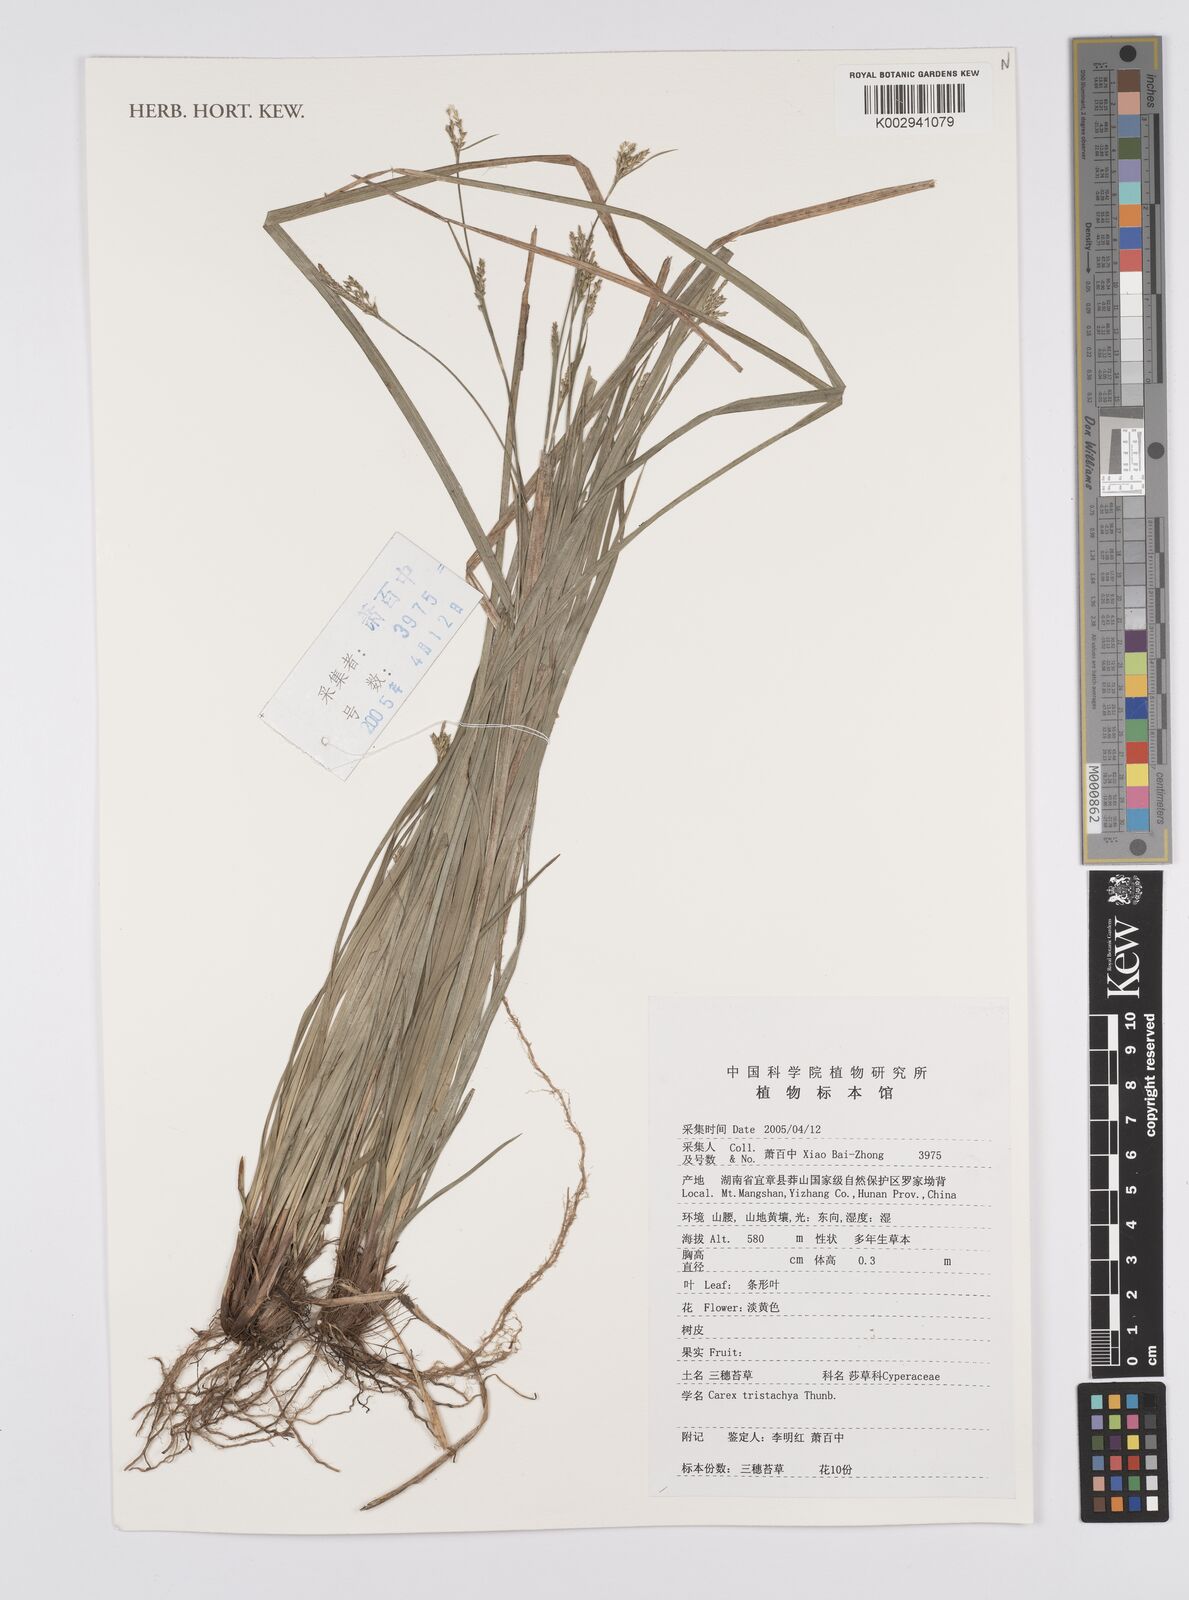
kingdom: Plantae
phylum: Tracheophyta
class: Liliopsida
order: Poales
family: Cyperaceae
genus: Carex
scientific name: Carex tristachya
